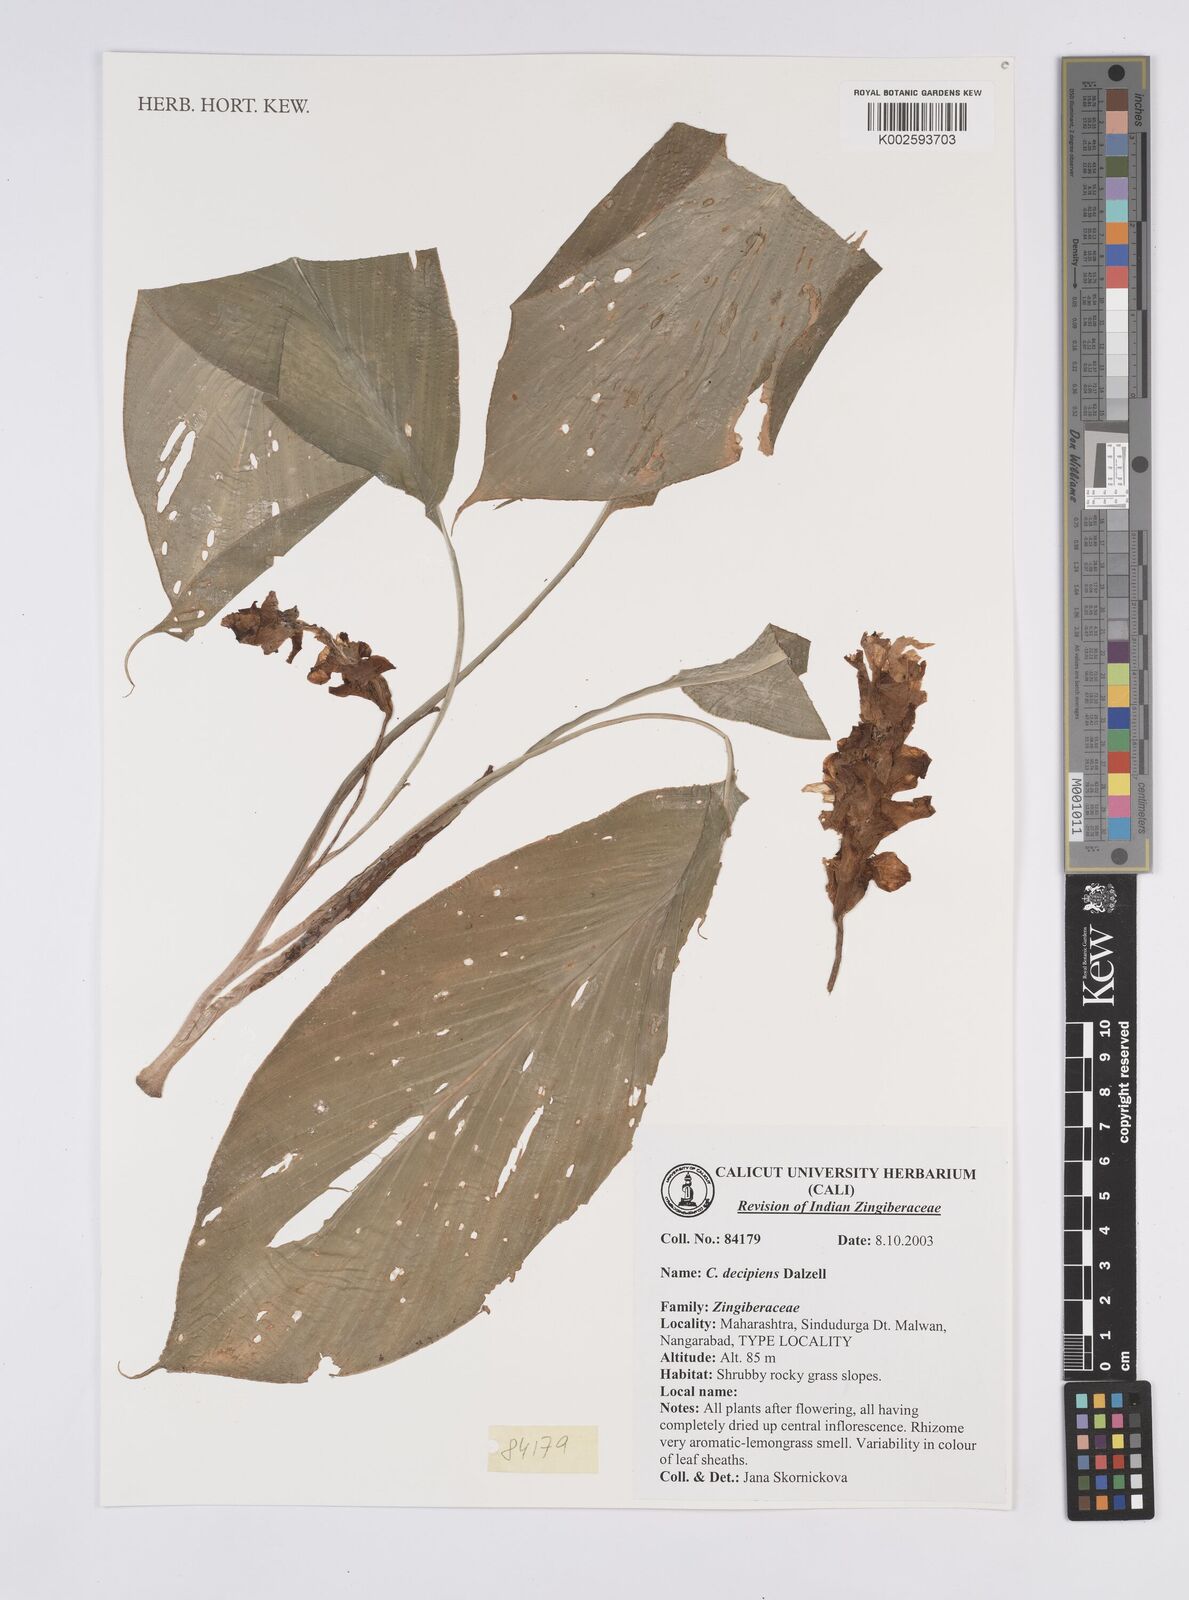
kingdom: Plantae
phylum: Tracheophyta
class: Liliopsida
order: Zingiberales
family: Zingiberaceae
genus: Curcuma
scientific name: Curcuma decipiens
